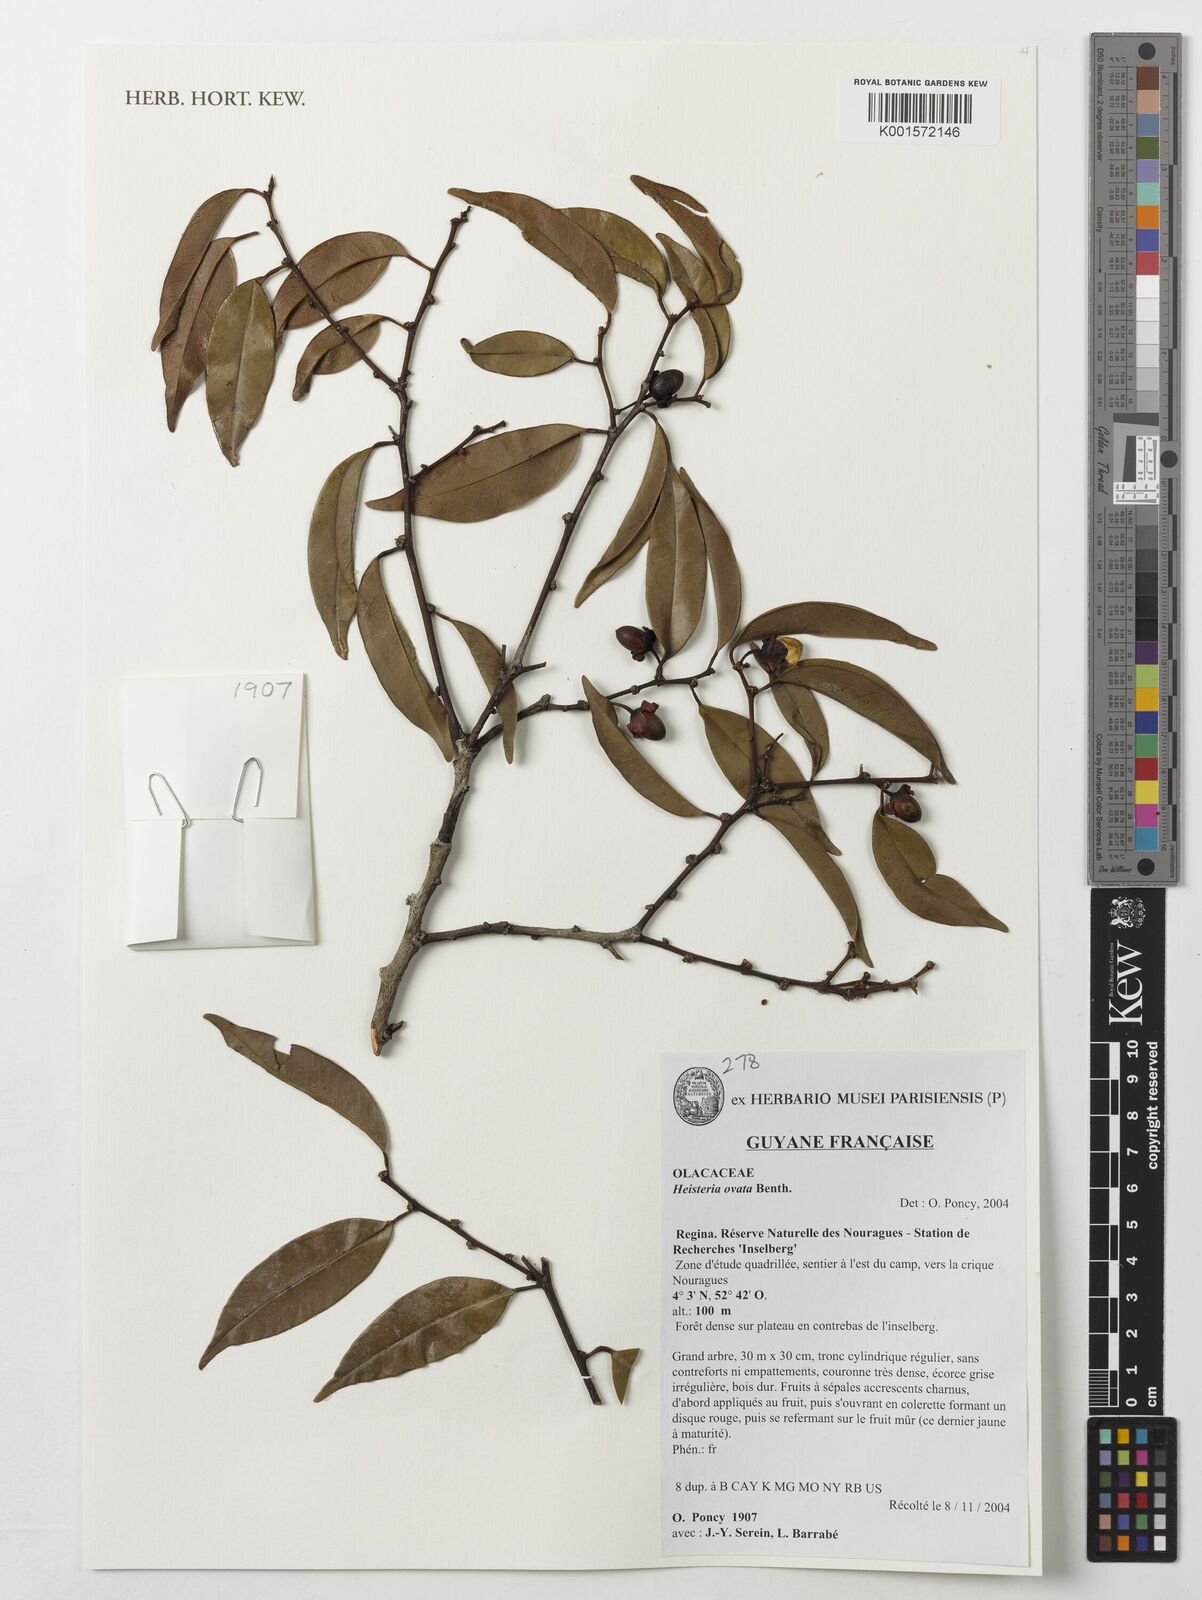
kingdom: Plantae
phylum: Tracheophyta
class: Magnoliopsida
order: Santalales
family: Erythropalaceae
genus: Heisteria
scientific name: Heisteria ovata
